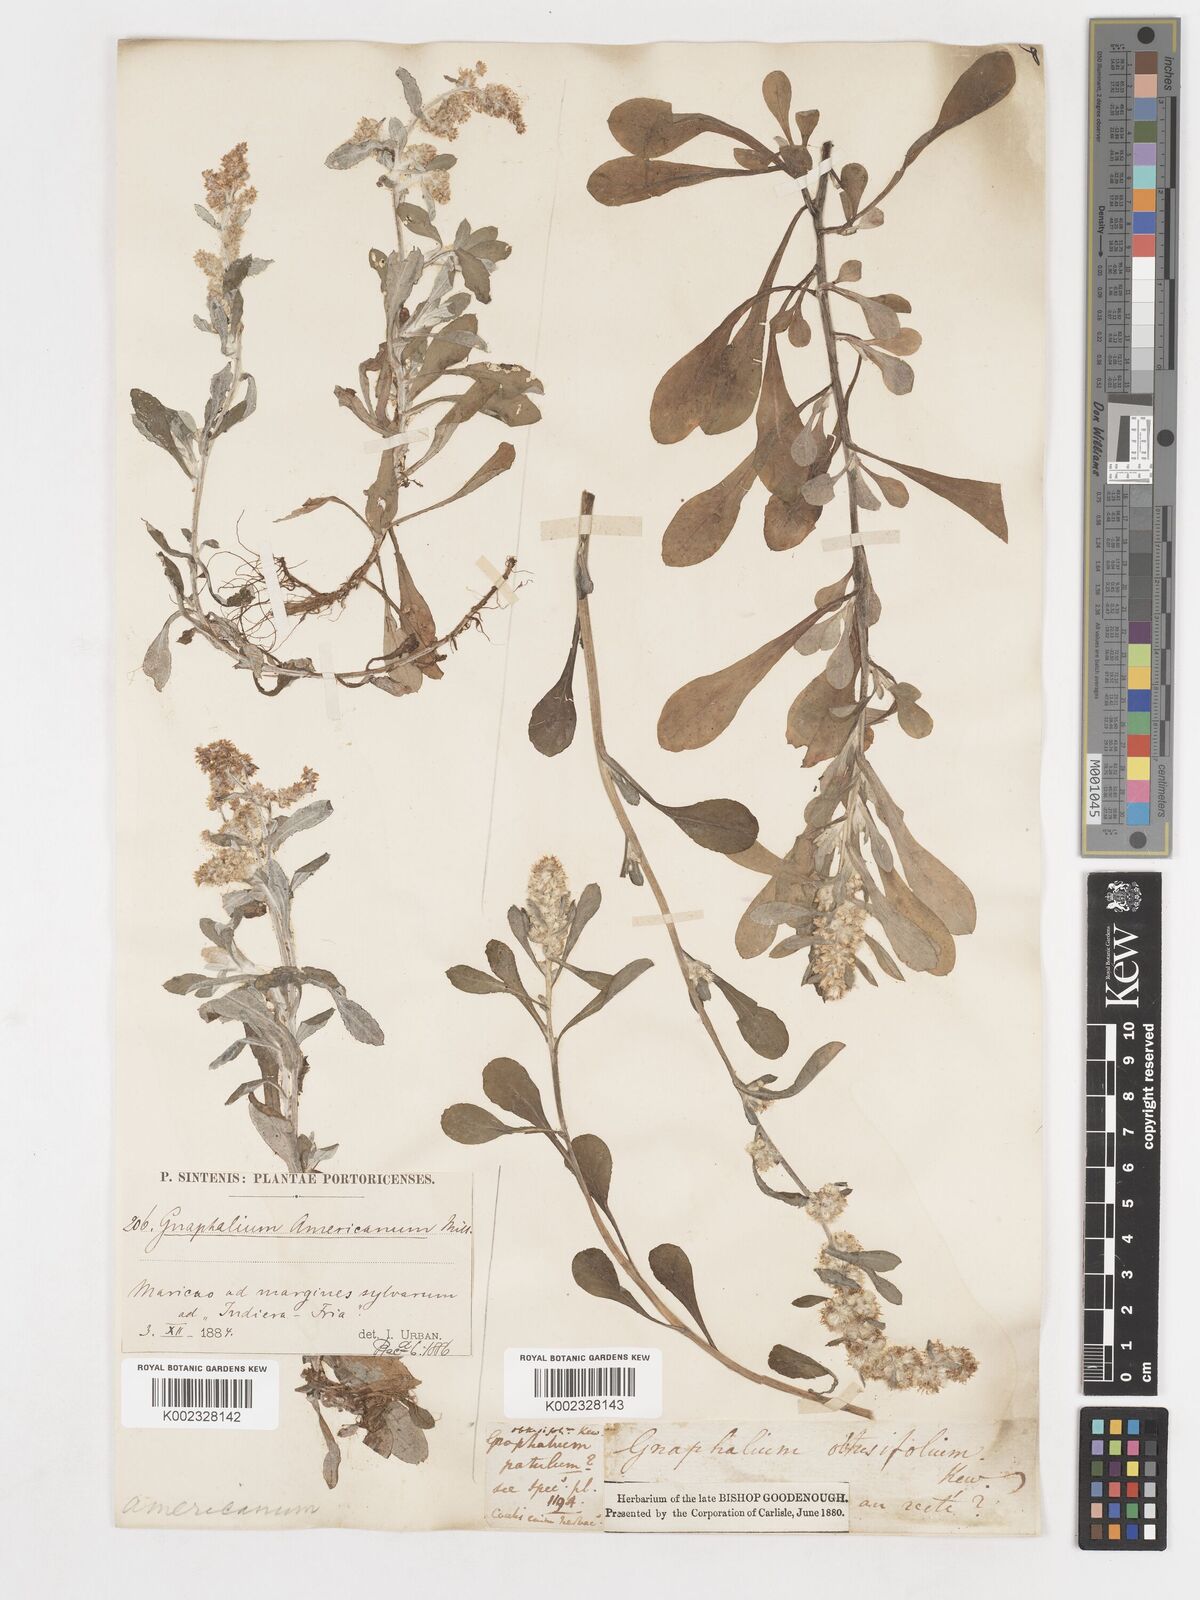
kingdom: Plantae
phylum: Tracheophyta
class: Magnoliopsida
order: Asterales
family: Asteraceae
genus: Gamochaeta
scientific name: Gamochaeta americana
